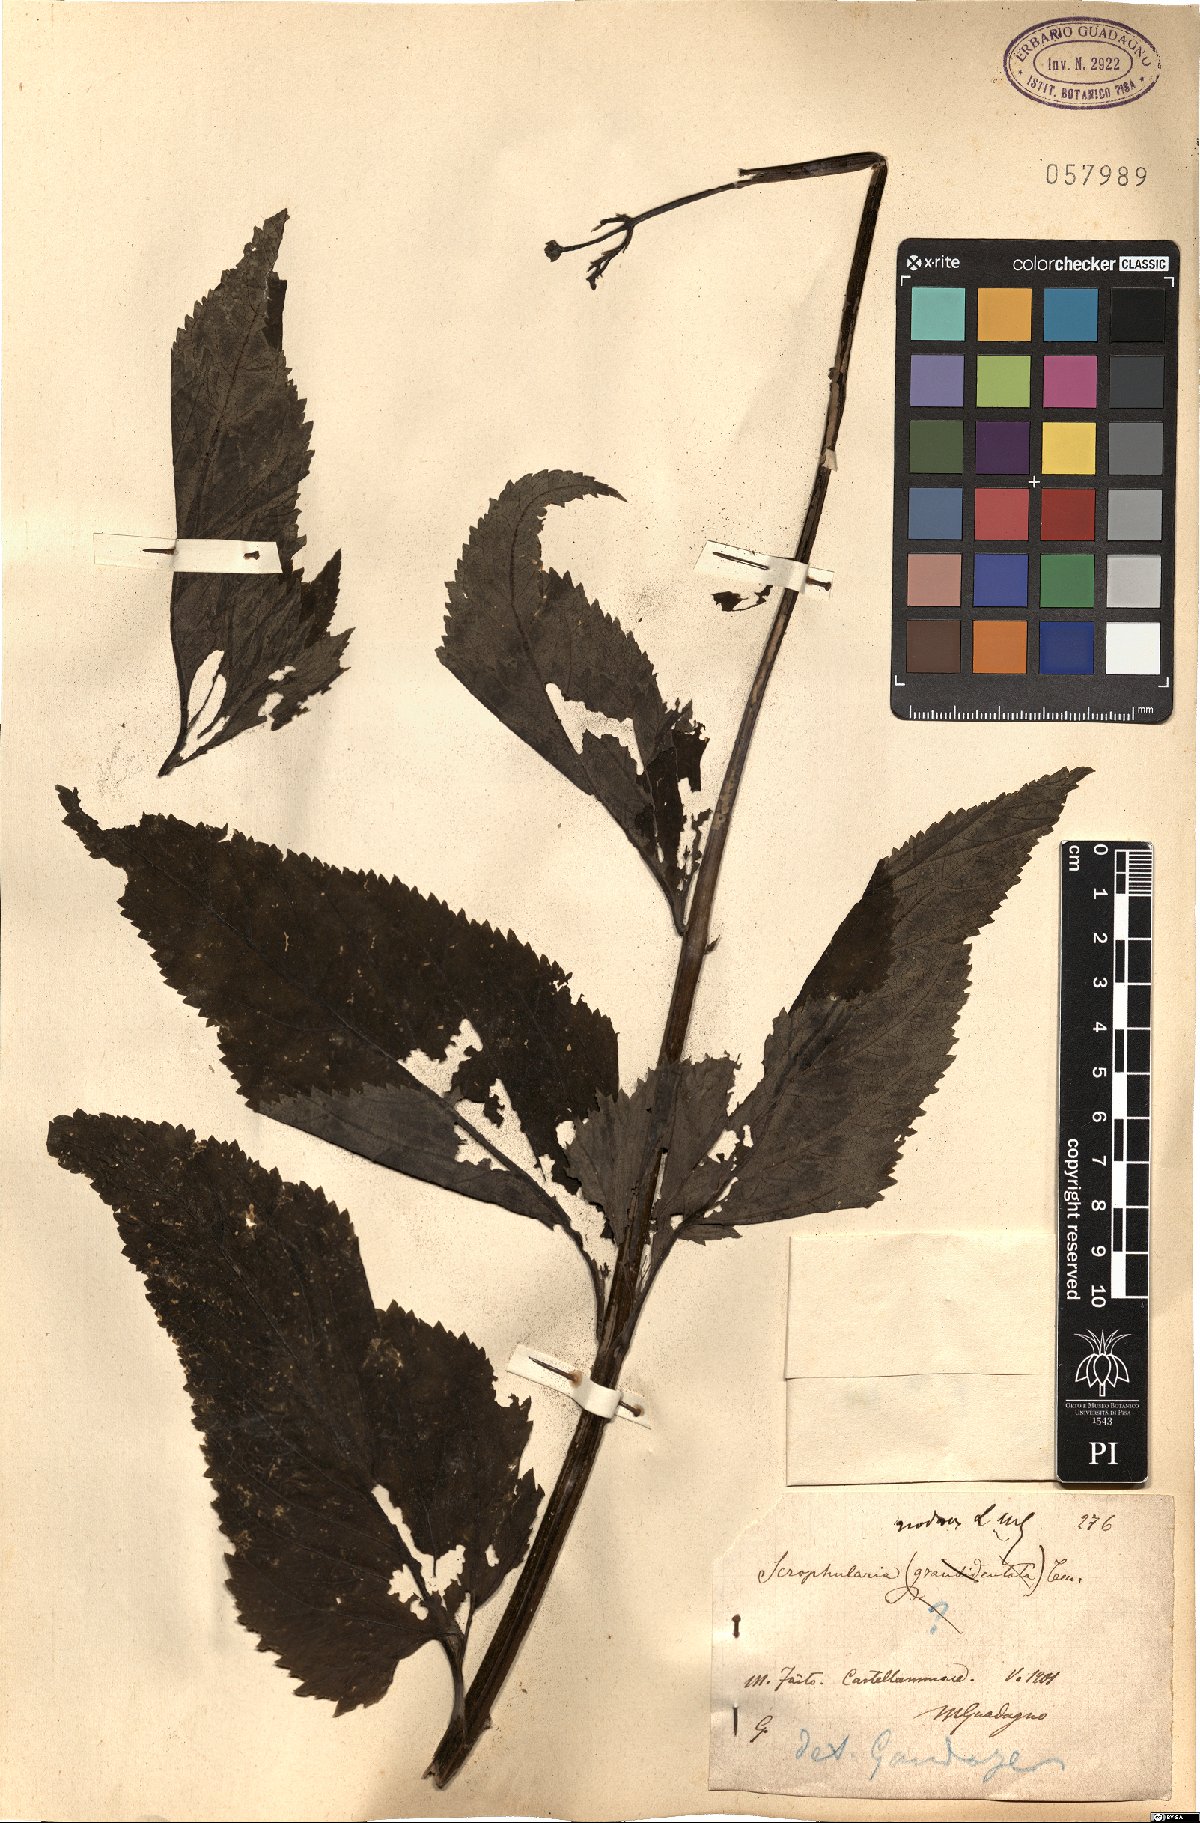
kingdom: Plantae
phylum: Tracheophyta
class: Magnoliopsida
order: Lamiales
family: Scrophulariaceae
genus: Scrophularia
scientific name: Scrophularia nodosa
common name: Common figwort
